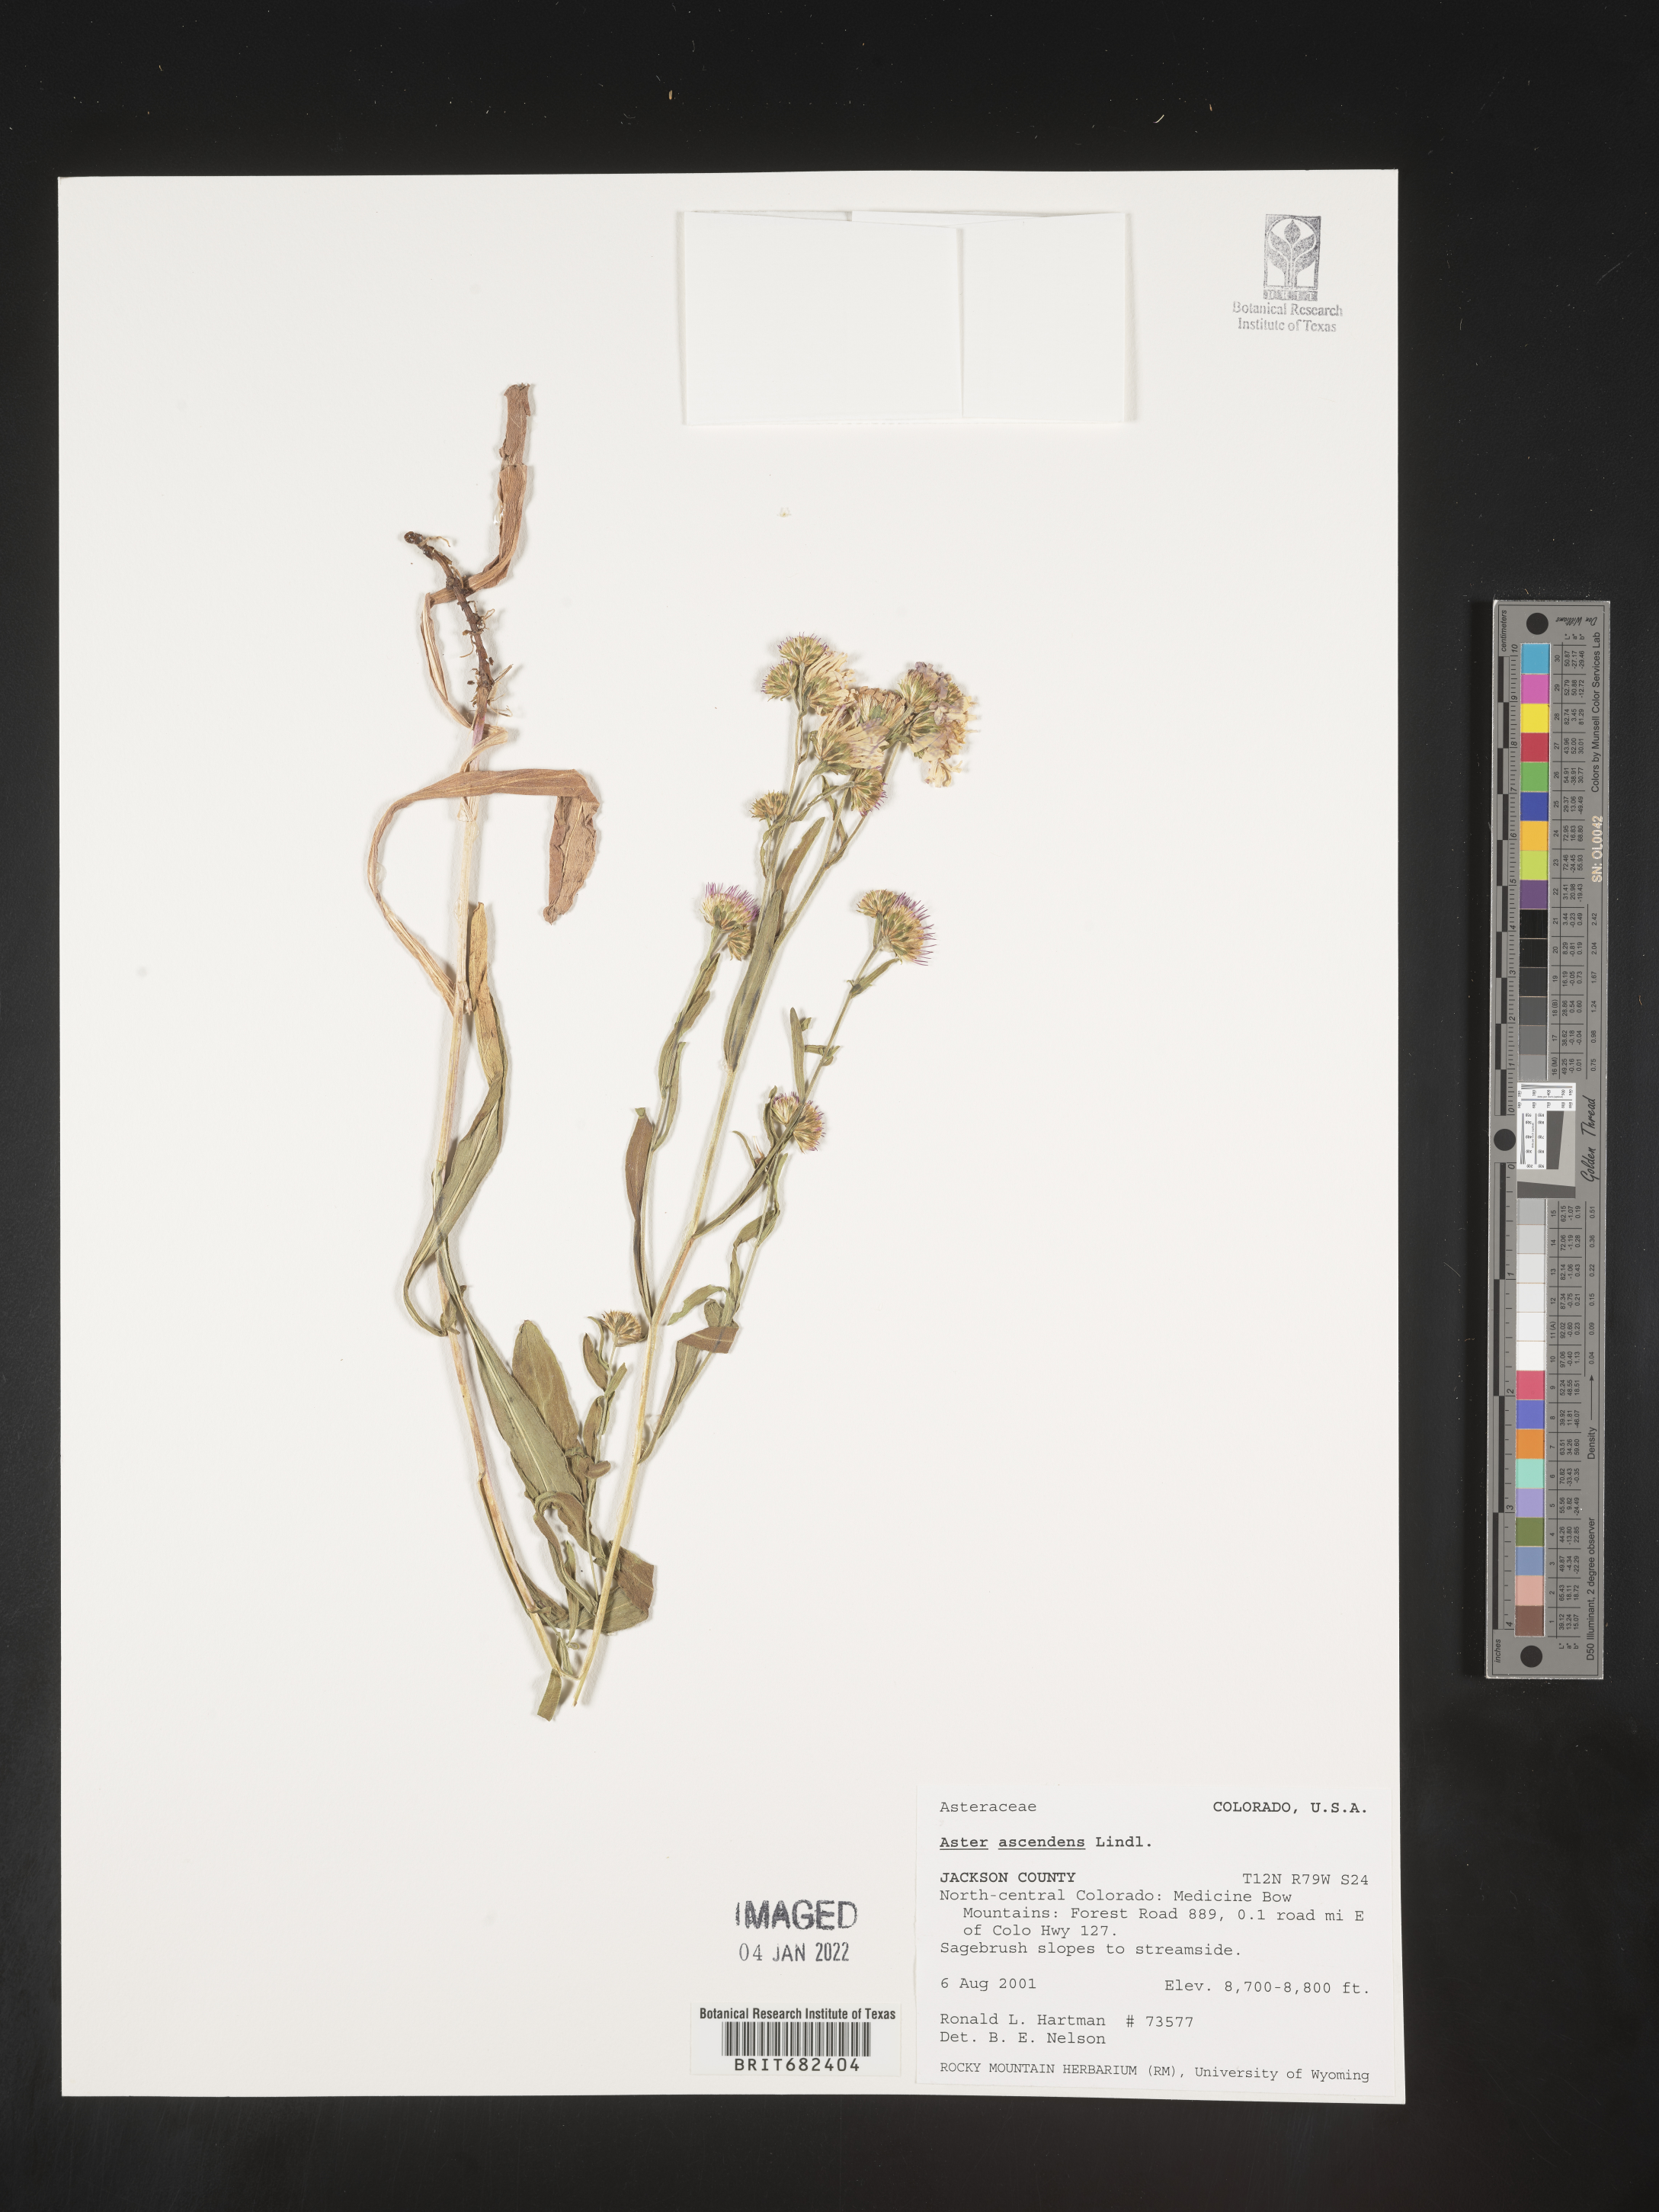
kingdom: Plantae
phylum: Tracheophyta
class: Magnoliopsida
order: Asterales
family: Asteraceae
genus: Aster
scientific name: Aster
